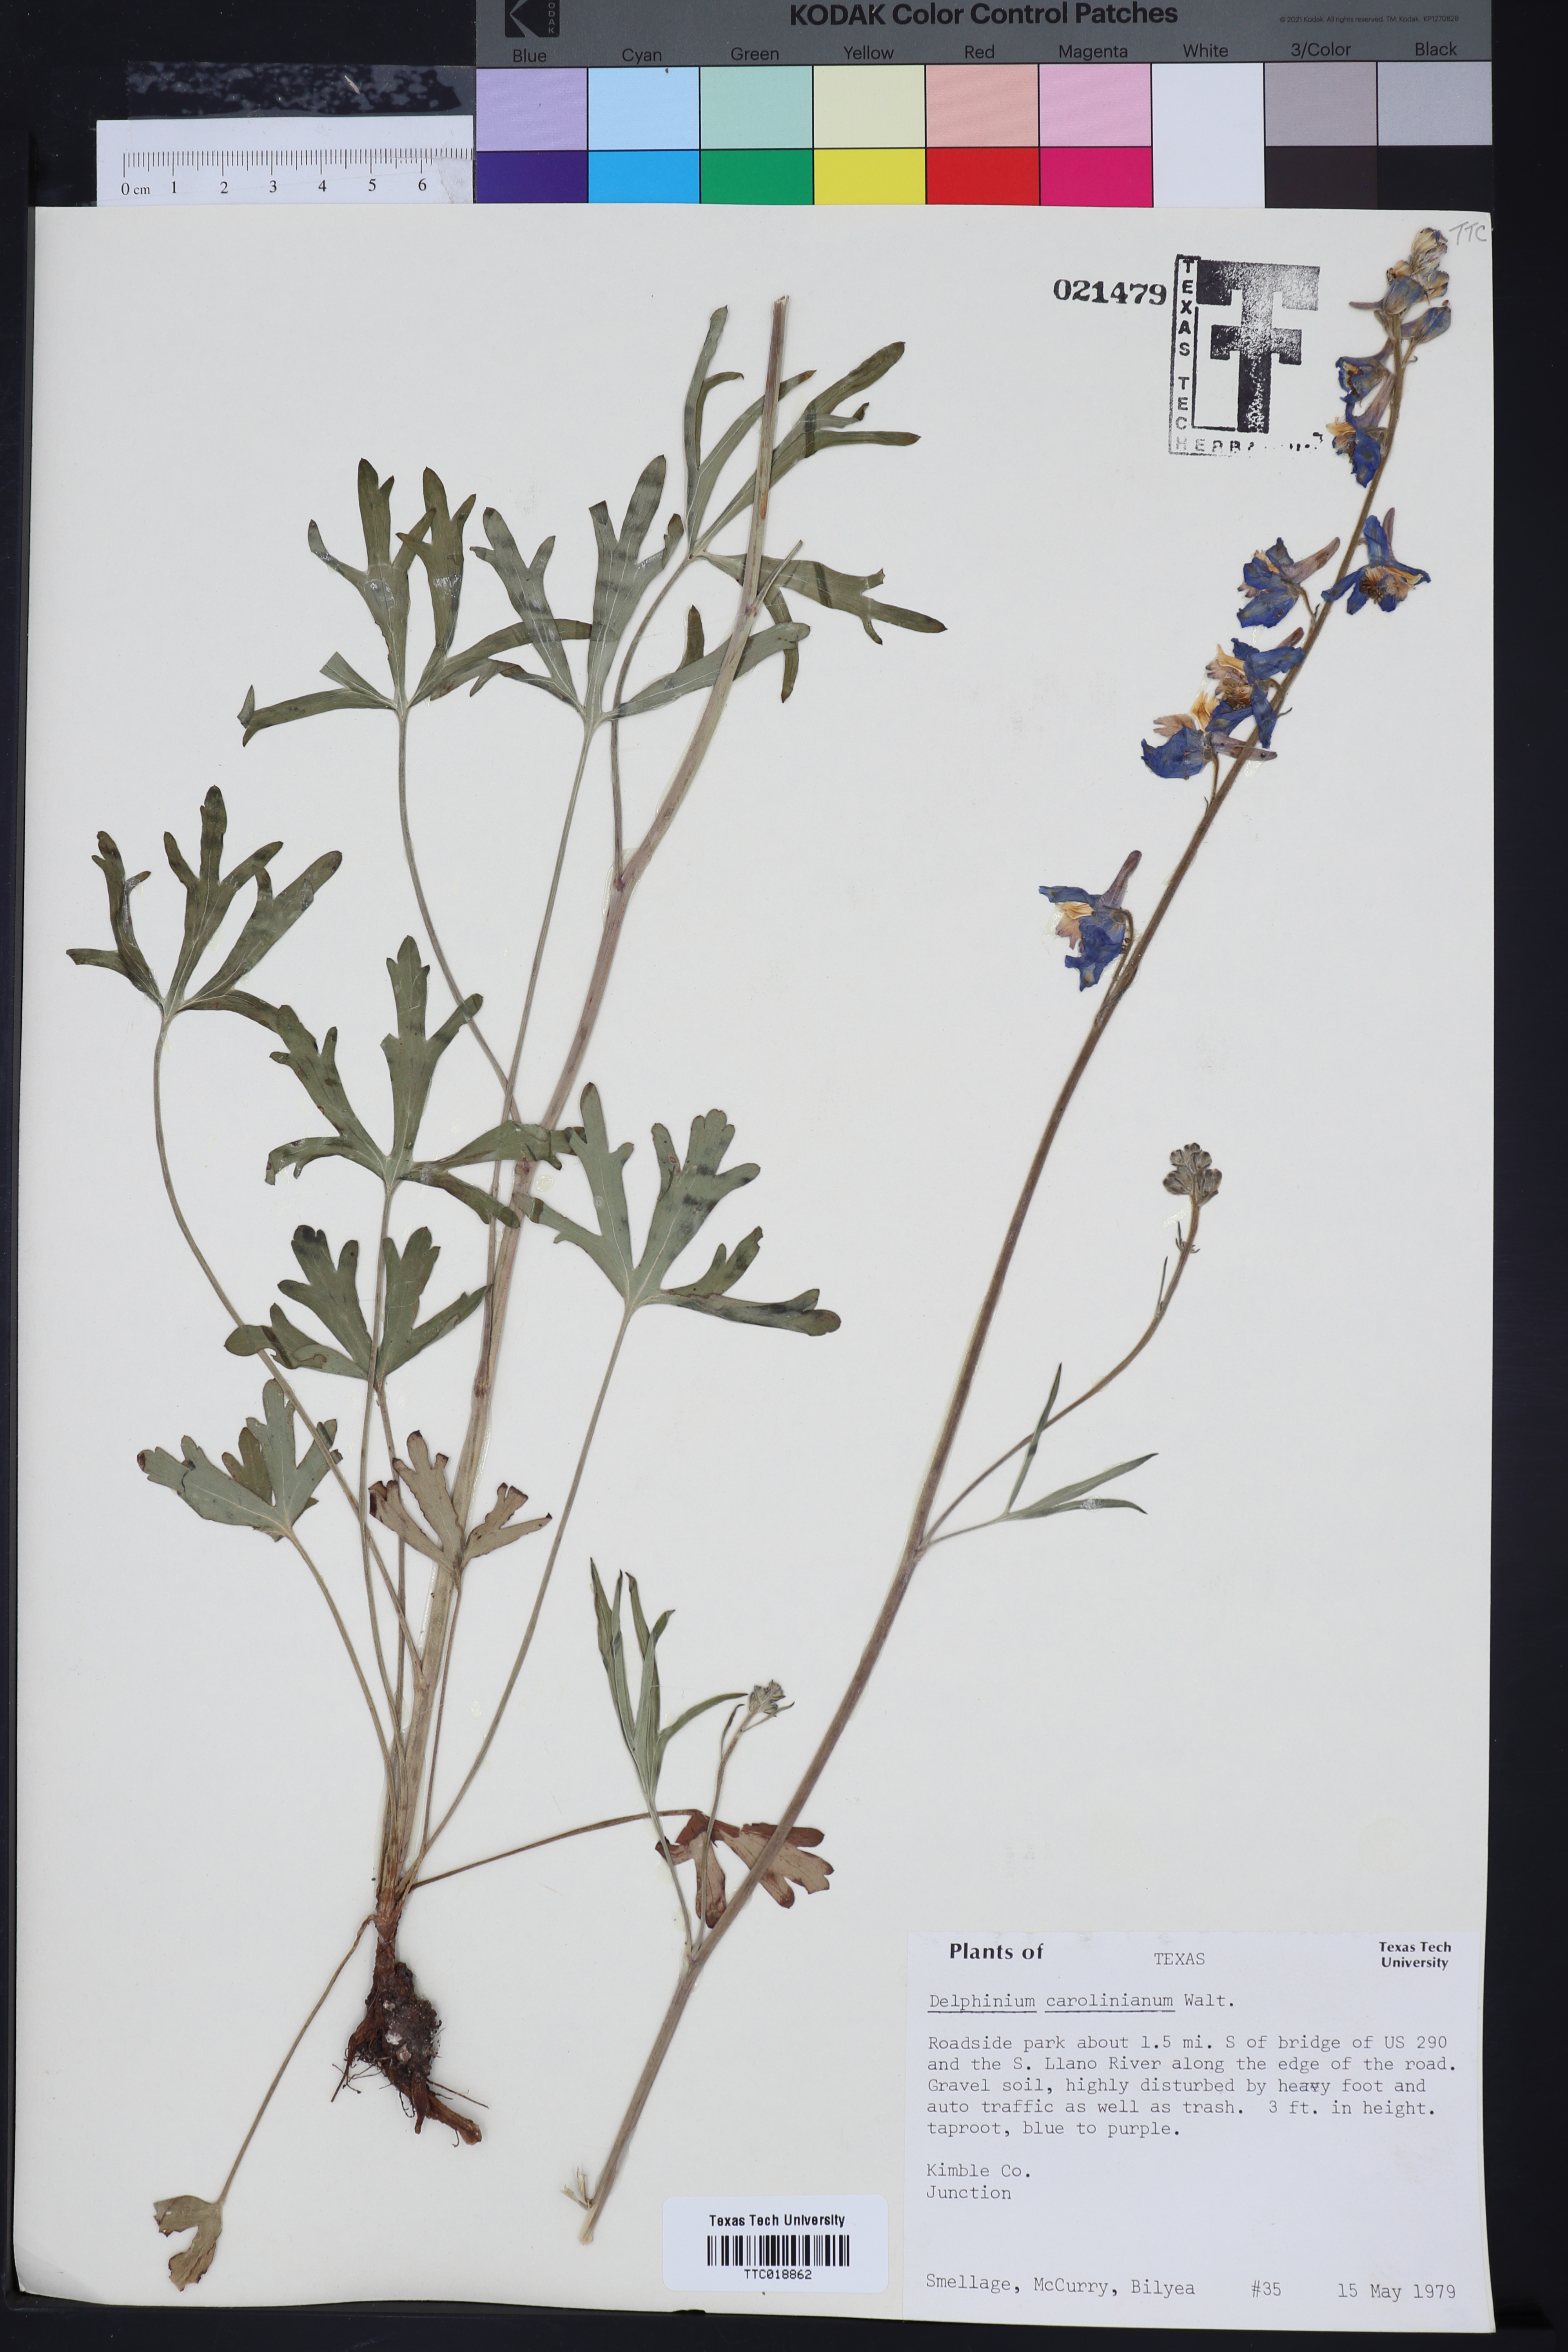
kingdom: Plantae
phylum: Tracheophyta
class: Magnoliopsida
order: Ranunculales
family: Ranunculaceae
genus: Delphinium
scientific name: Delphinium carolinianum
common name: Carolina larkspur
